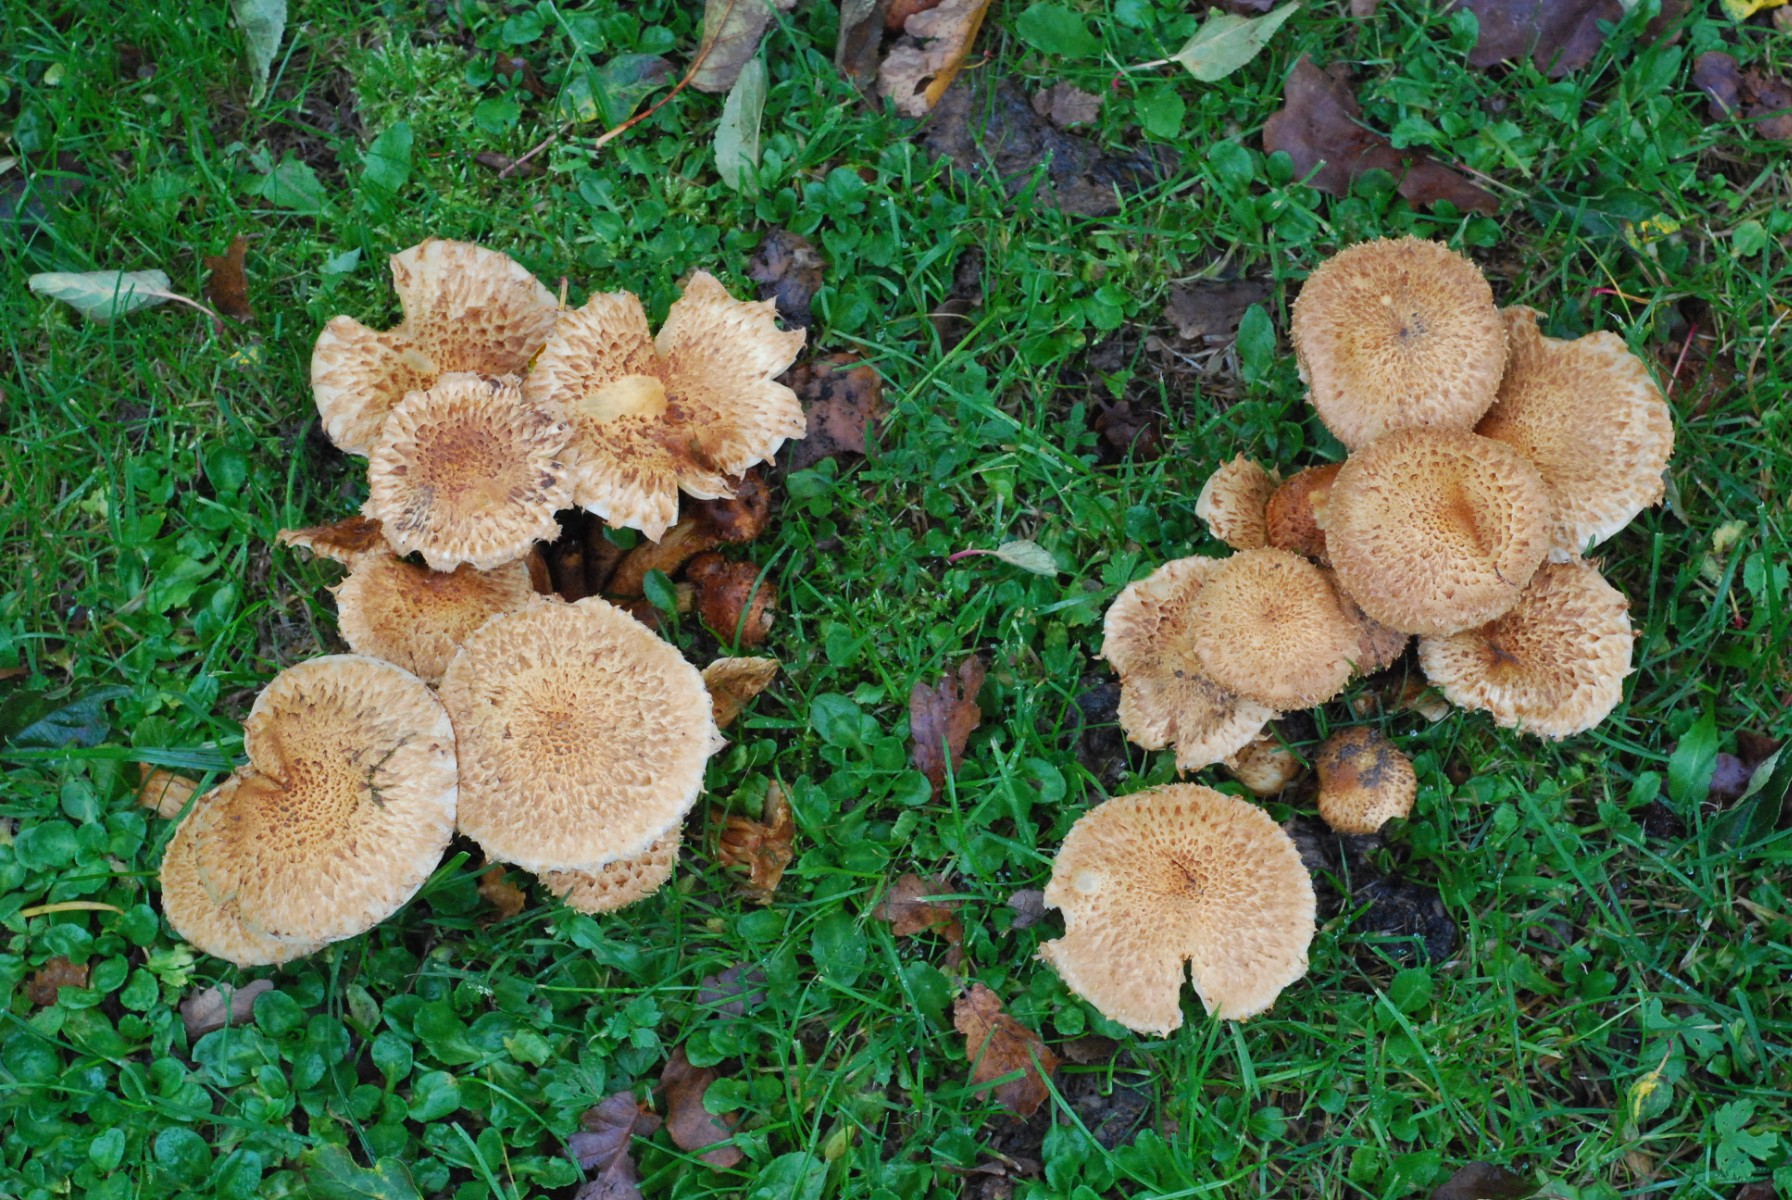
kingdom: Fungi
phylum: Basidiomycota
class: Agaricomycetes
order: Agaricales
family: Strophariaceae
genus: Pholiota
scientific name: Pholiota squarrosa
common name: krumskællet skælhat
